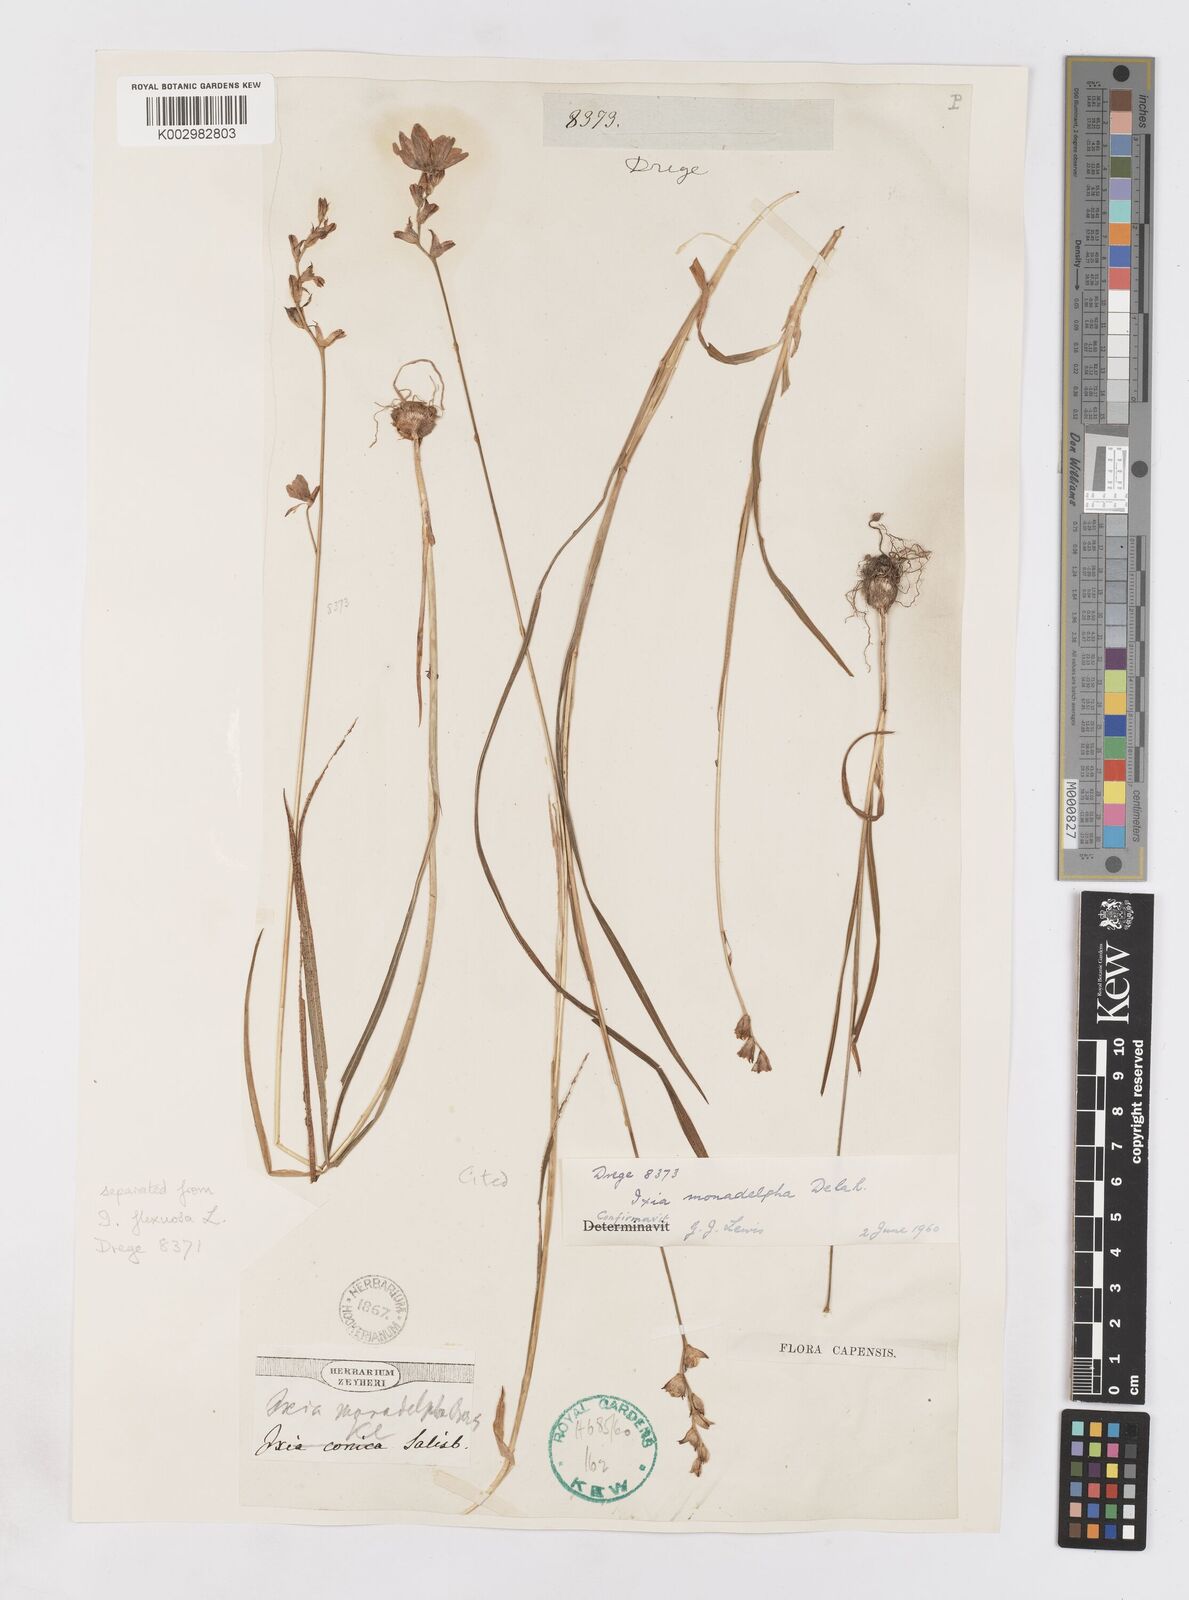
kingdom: Plantae
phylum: Tracheophyta
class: Liliopsida
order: Asparagales
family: Iridaceae
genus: Ixia
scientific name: Ixia monadelpha
